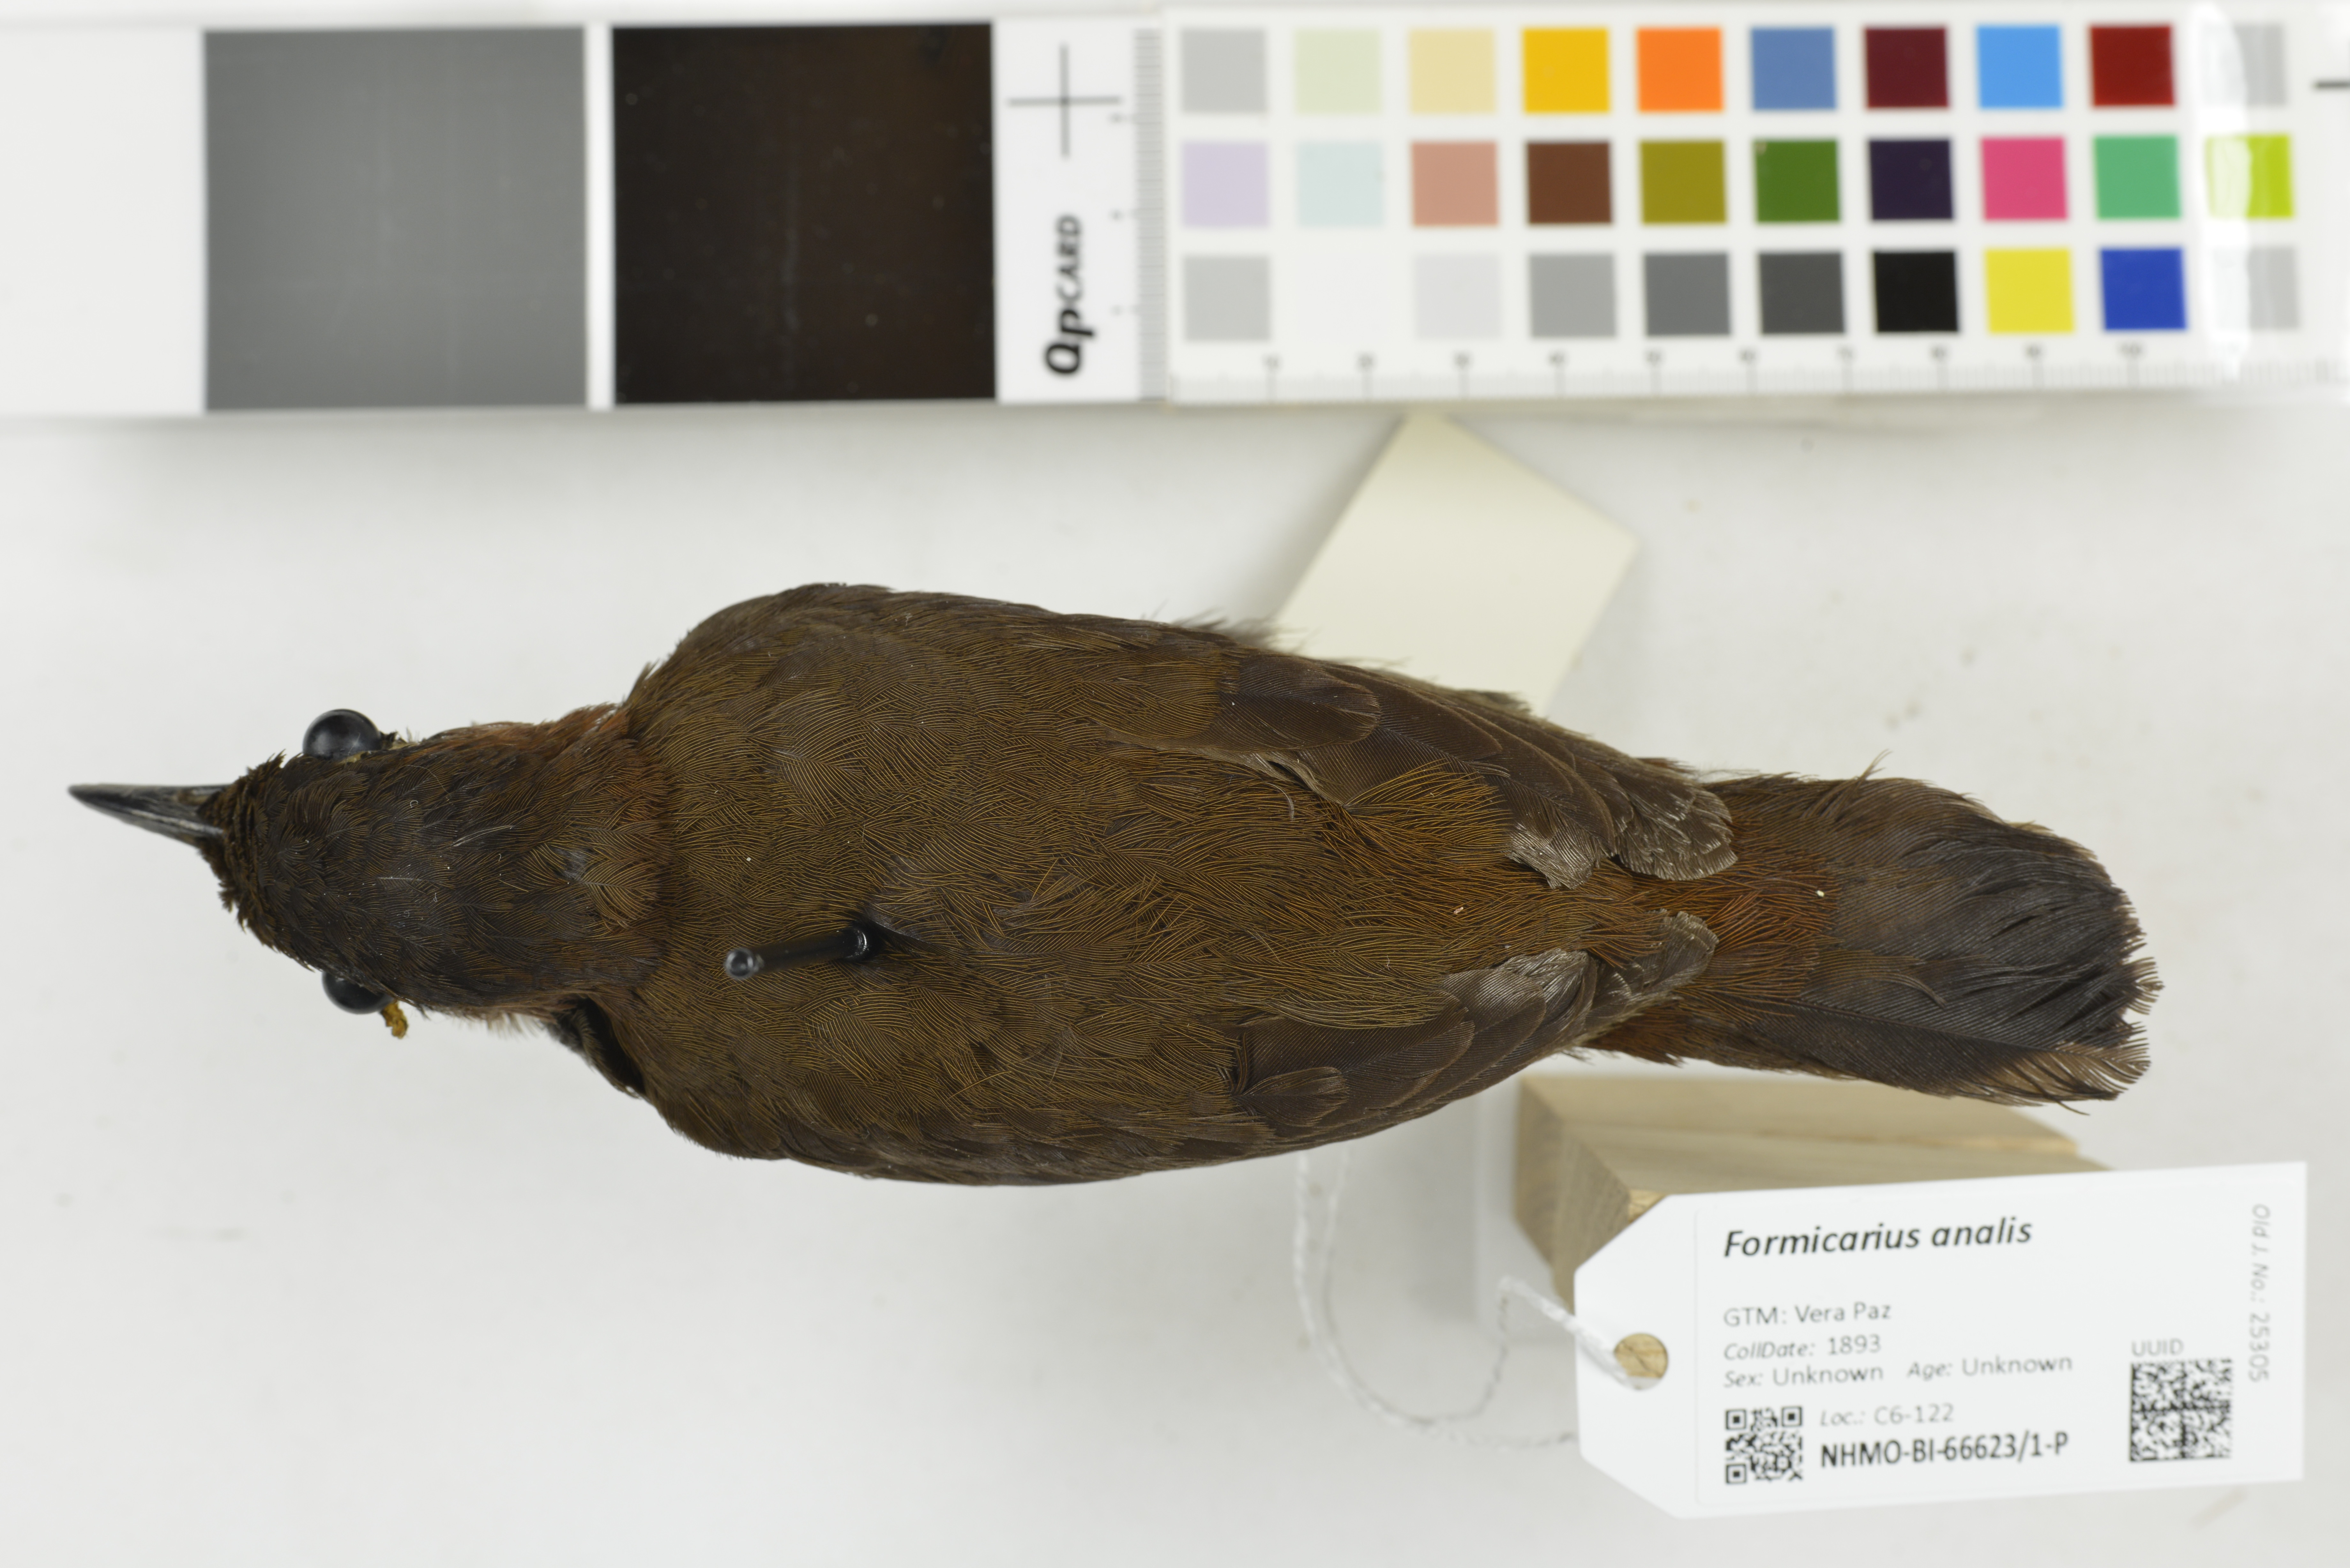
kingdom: Animalia
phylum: Chordata
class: Aves
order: Passeriformes
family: Formicariidae
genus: Formicarius
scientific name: Formicarius analis
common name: Black-faced antthrush
